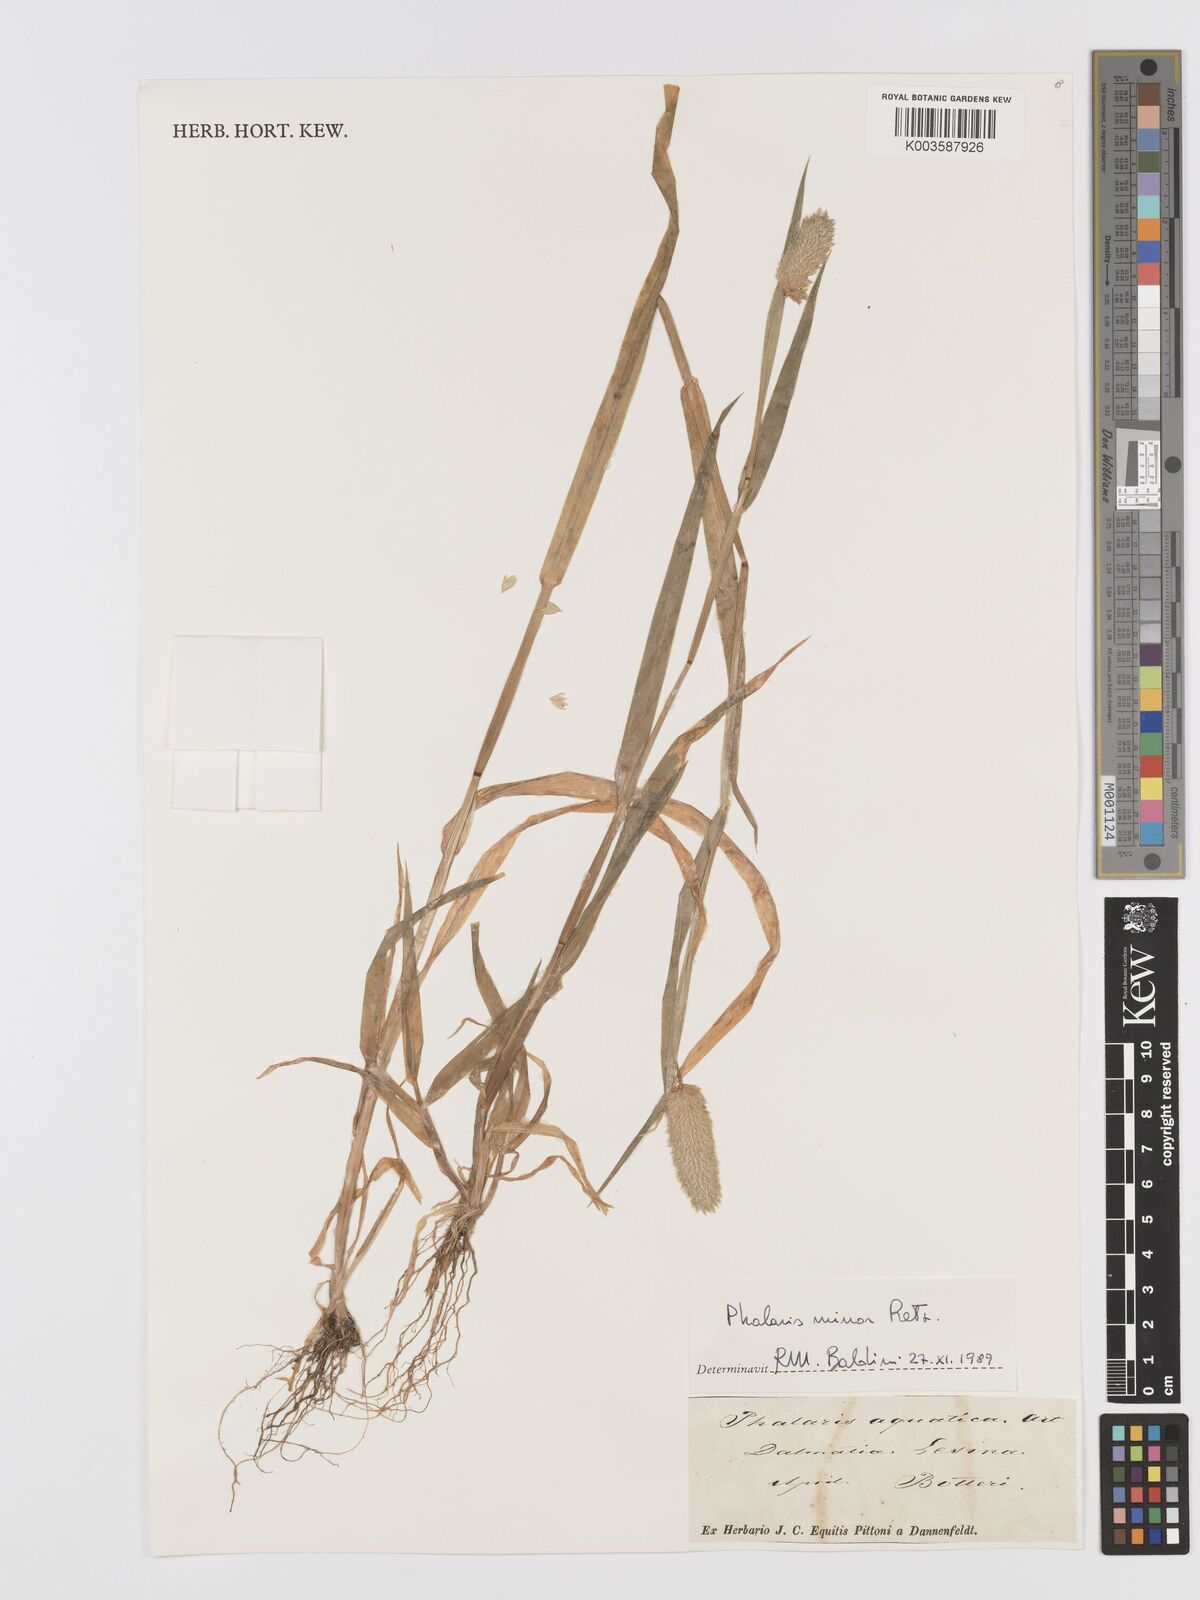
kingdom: Plantae
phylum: Tracheophyta
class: Liliopsida
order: Poales
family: Poaceae
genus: Phalaris
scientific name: Phalaris
